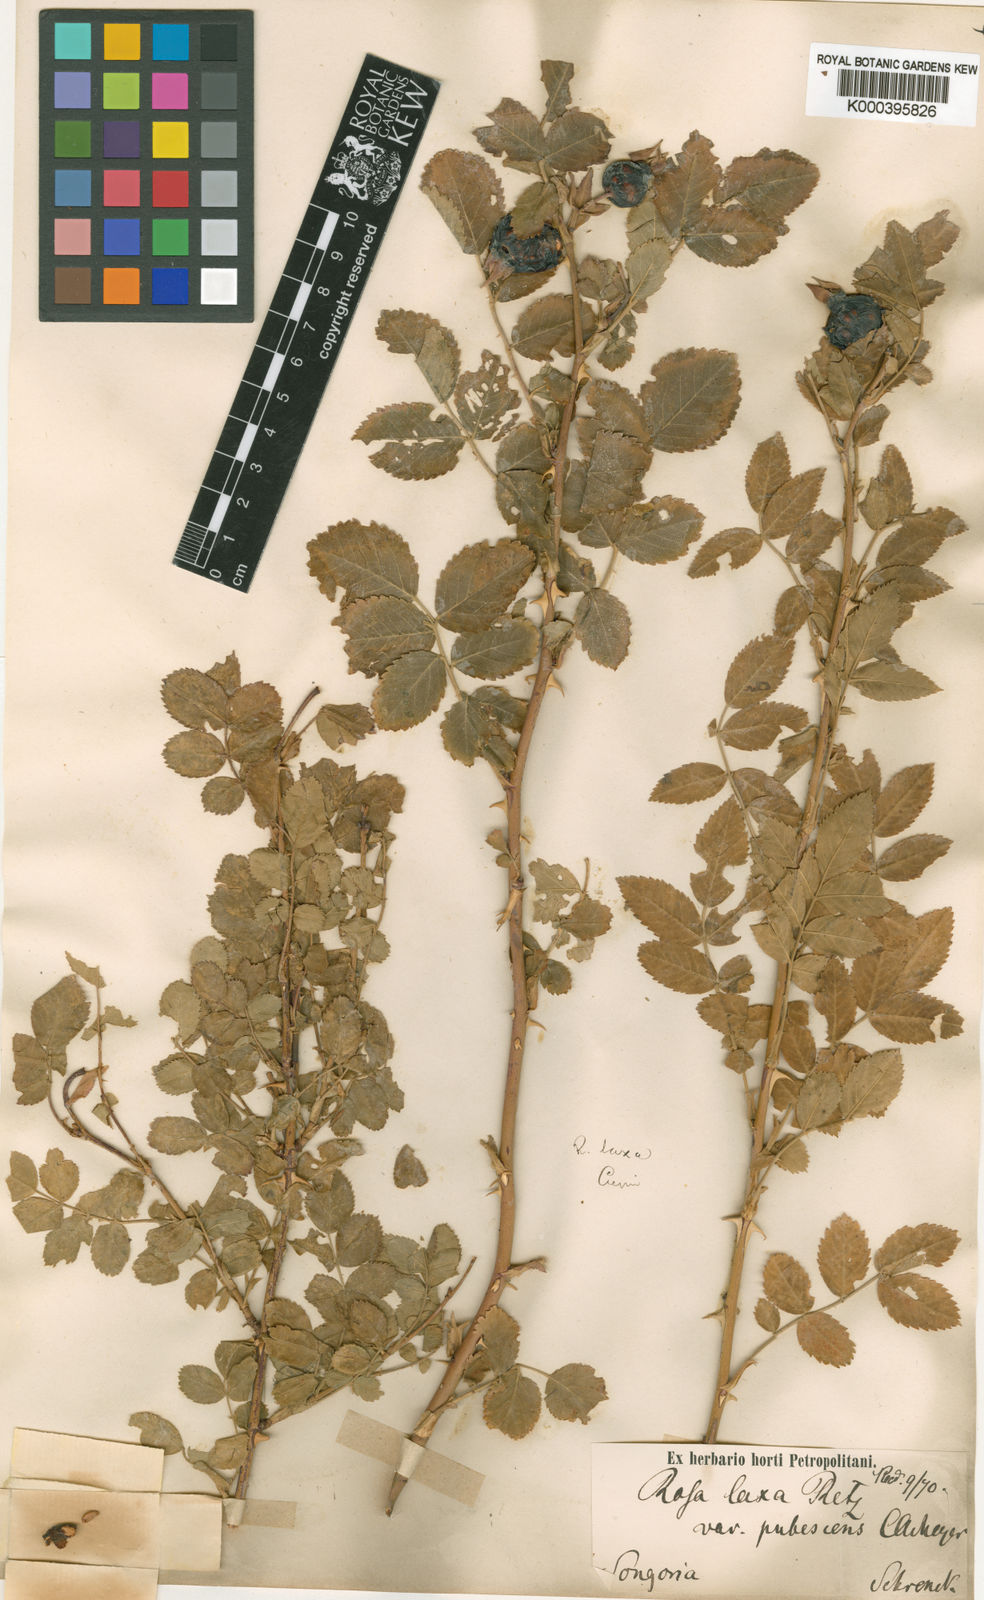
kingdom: Plantae
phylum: Tracheophyta
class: Magnoliopsida
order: Rosales
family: Rosaceae
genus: Rosa
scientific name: Rosa laxa
